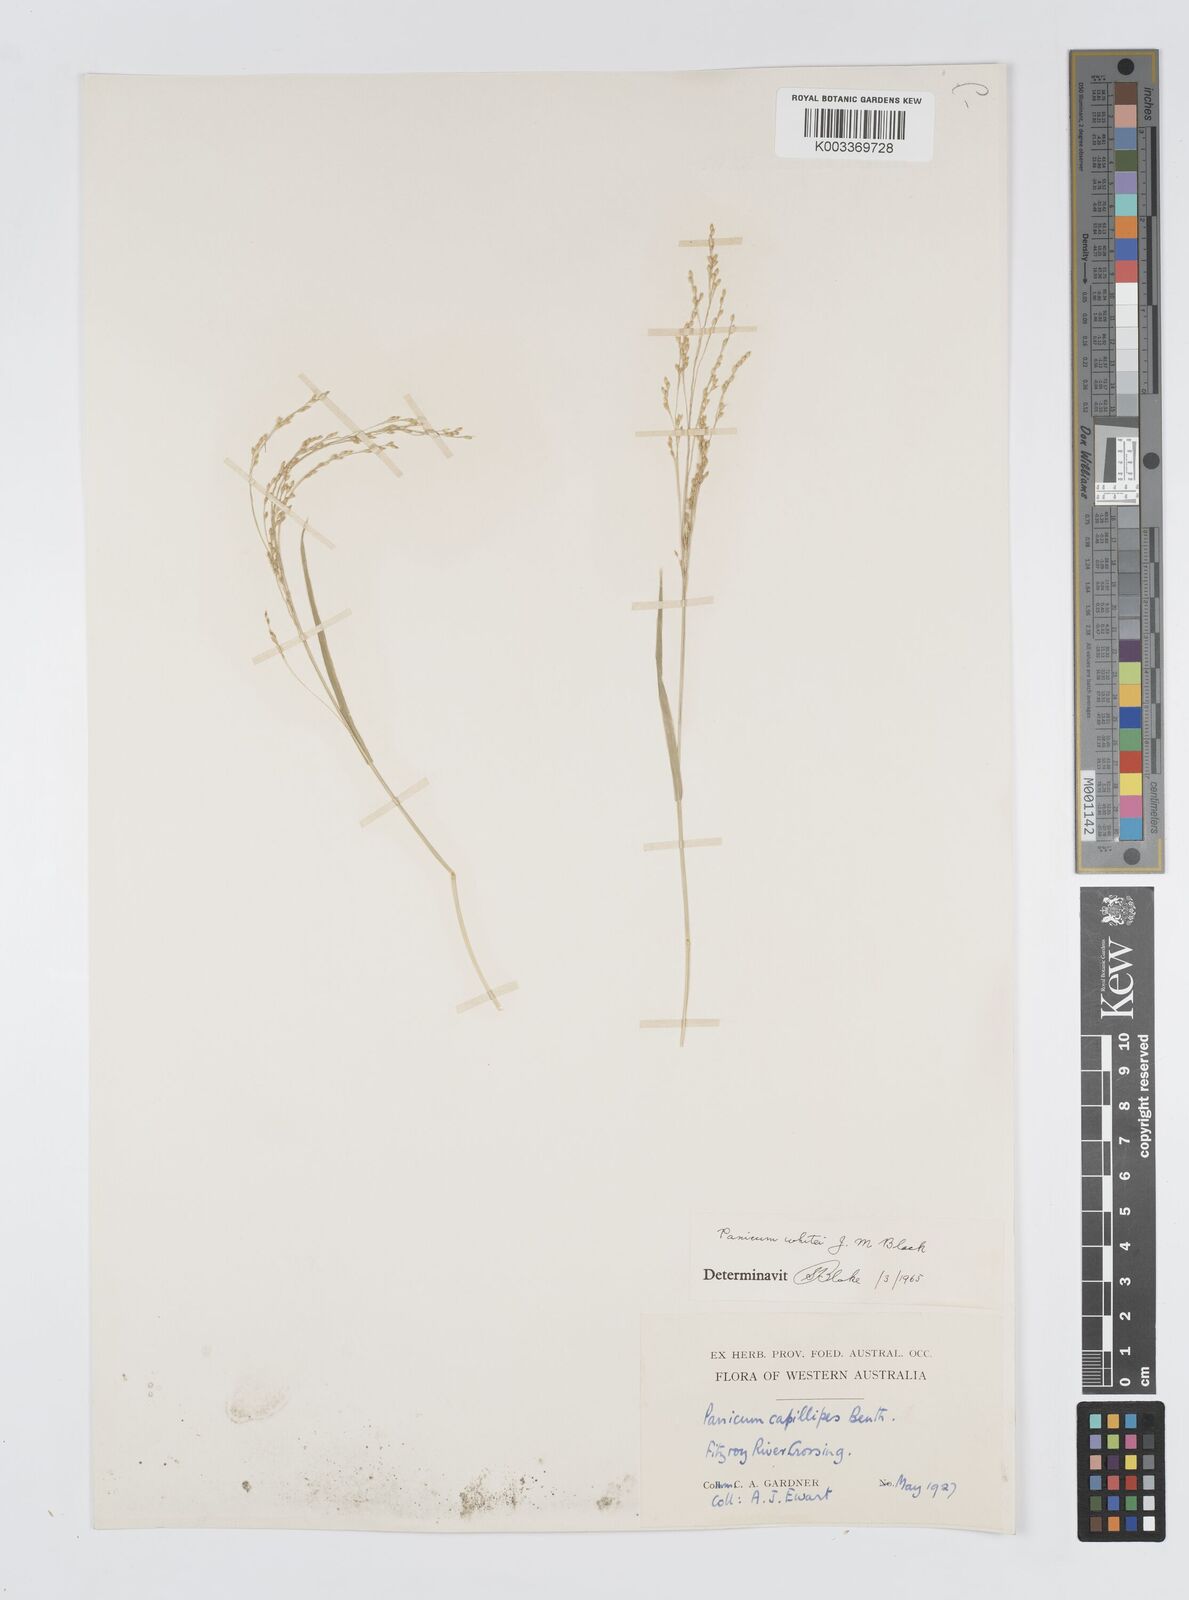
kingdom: Plantae
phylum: Tracheophyta
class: Liliopsida
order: Poales
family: Poaceae
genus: Panicum
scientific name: Panicum laevinode
